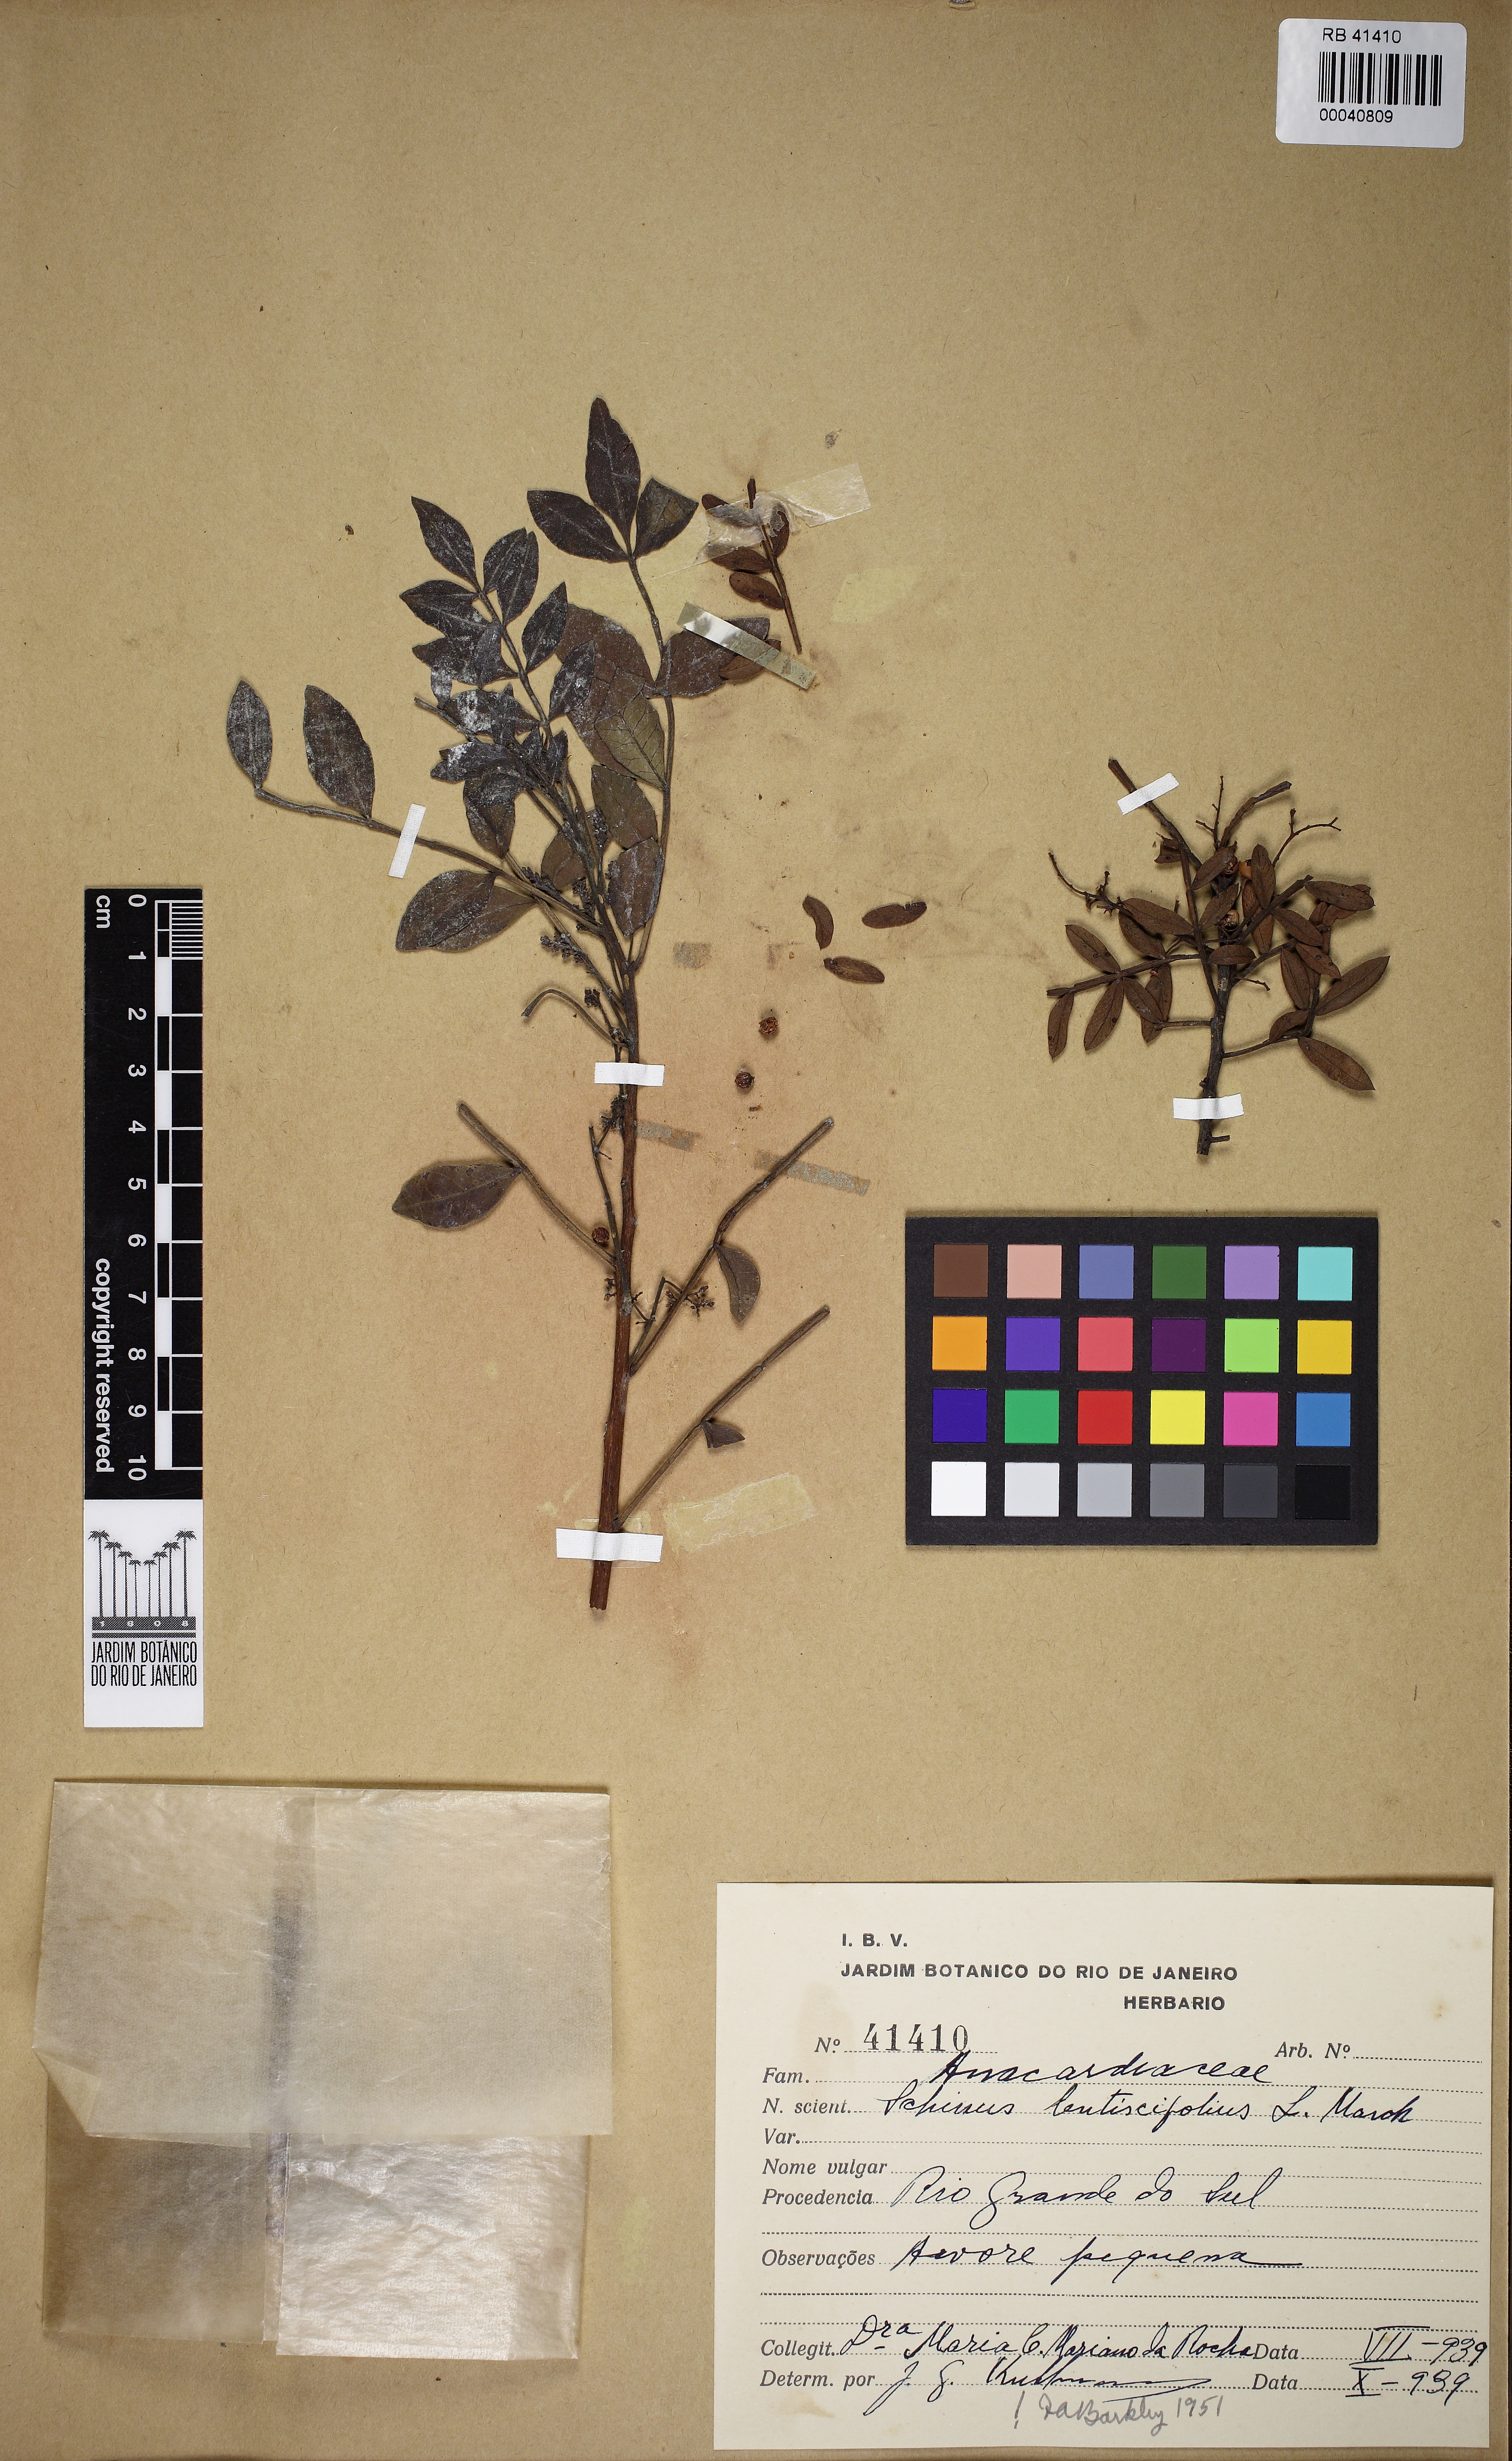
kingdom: Plantae
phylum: Tracheophyta
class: Magnoliopsida
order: Sapindales
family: Anacardiaceae
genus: Schinus
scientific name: Schinus lentiscifolia
